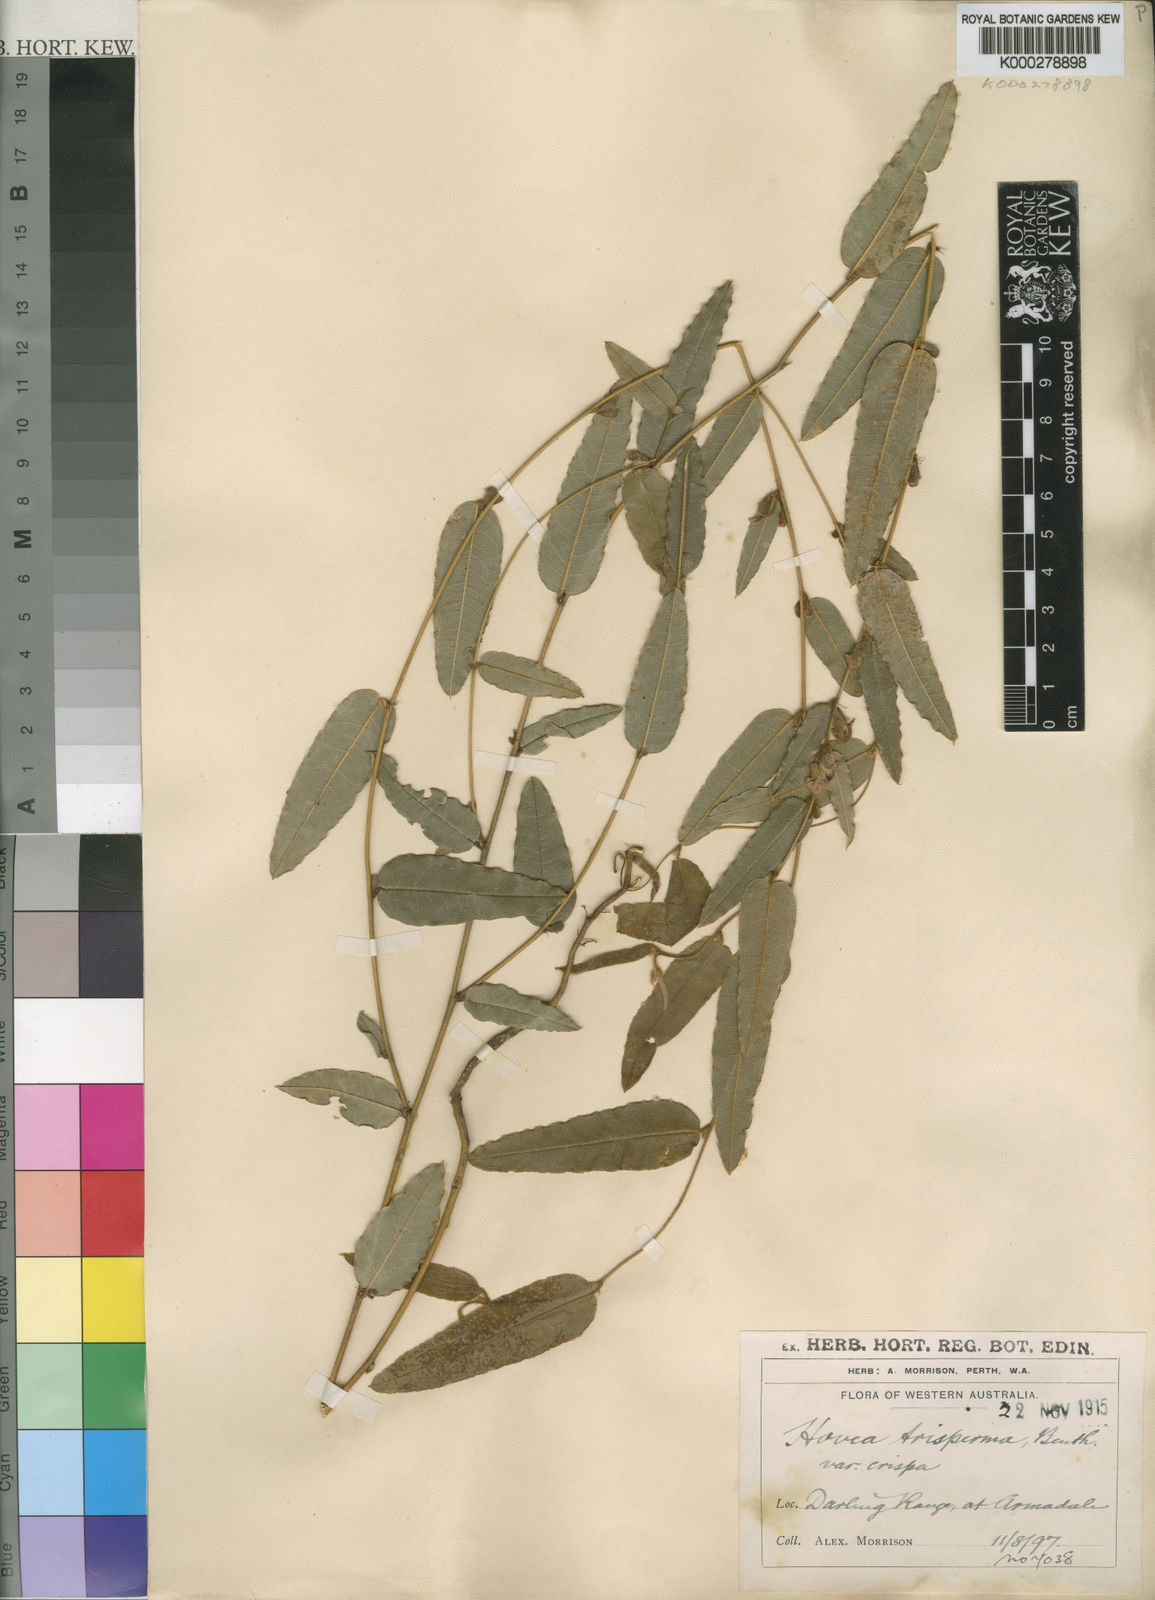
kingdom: Plantae
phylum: Tracheophyta
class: Magnoliopsida
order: Fabales
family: Fabaceae
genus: Hovea
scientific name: Hovea trisperma
